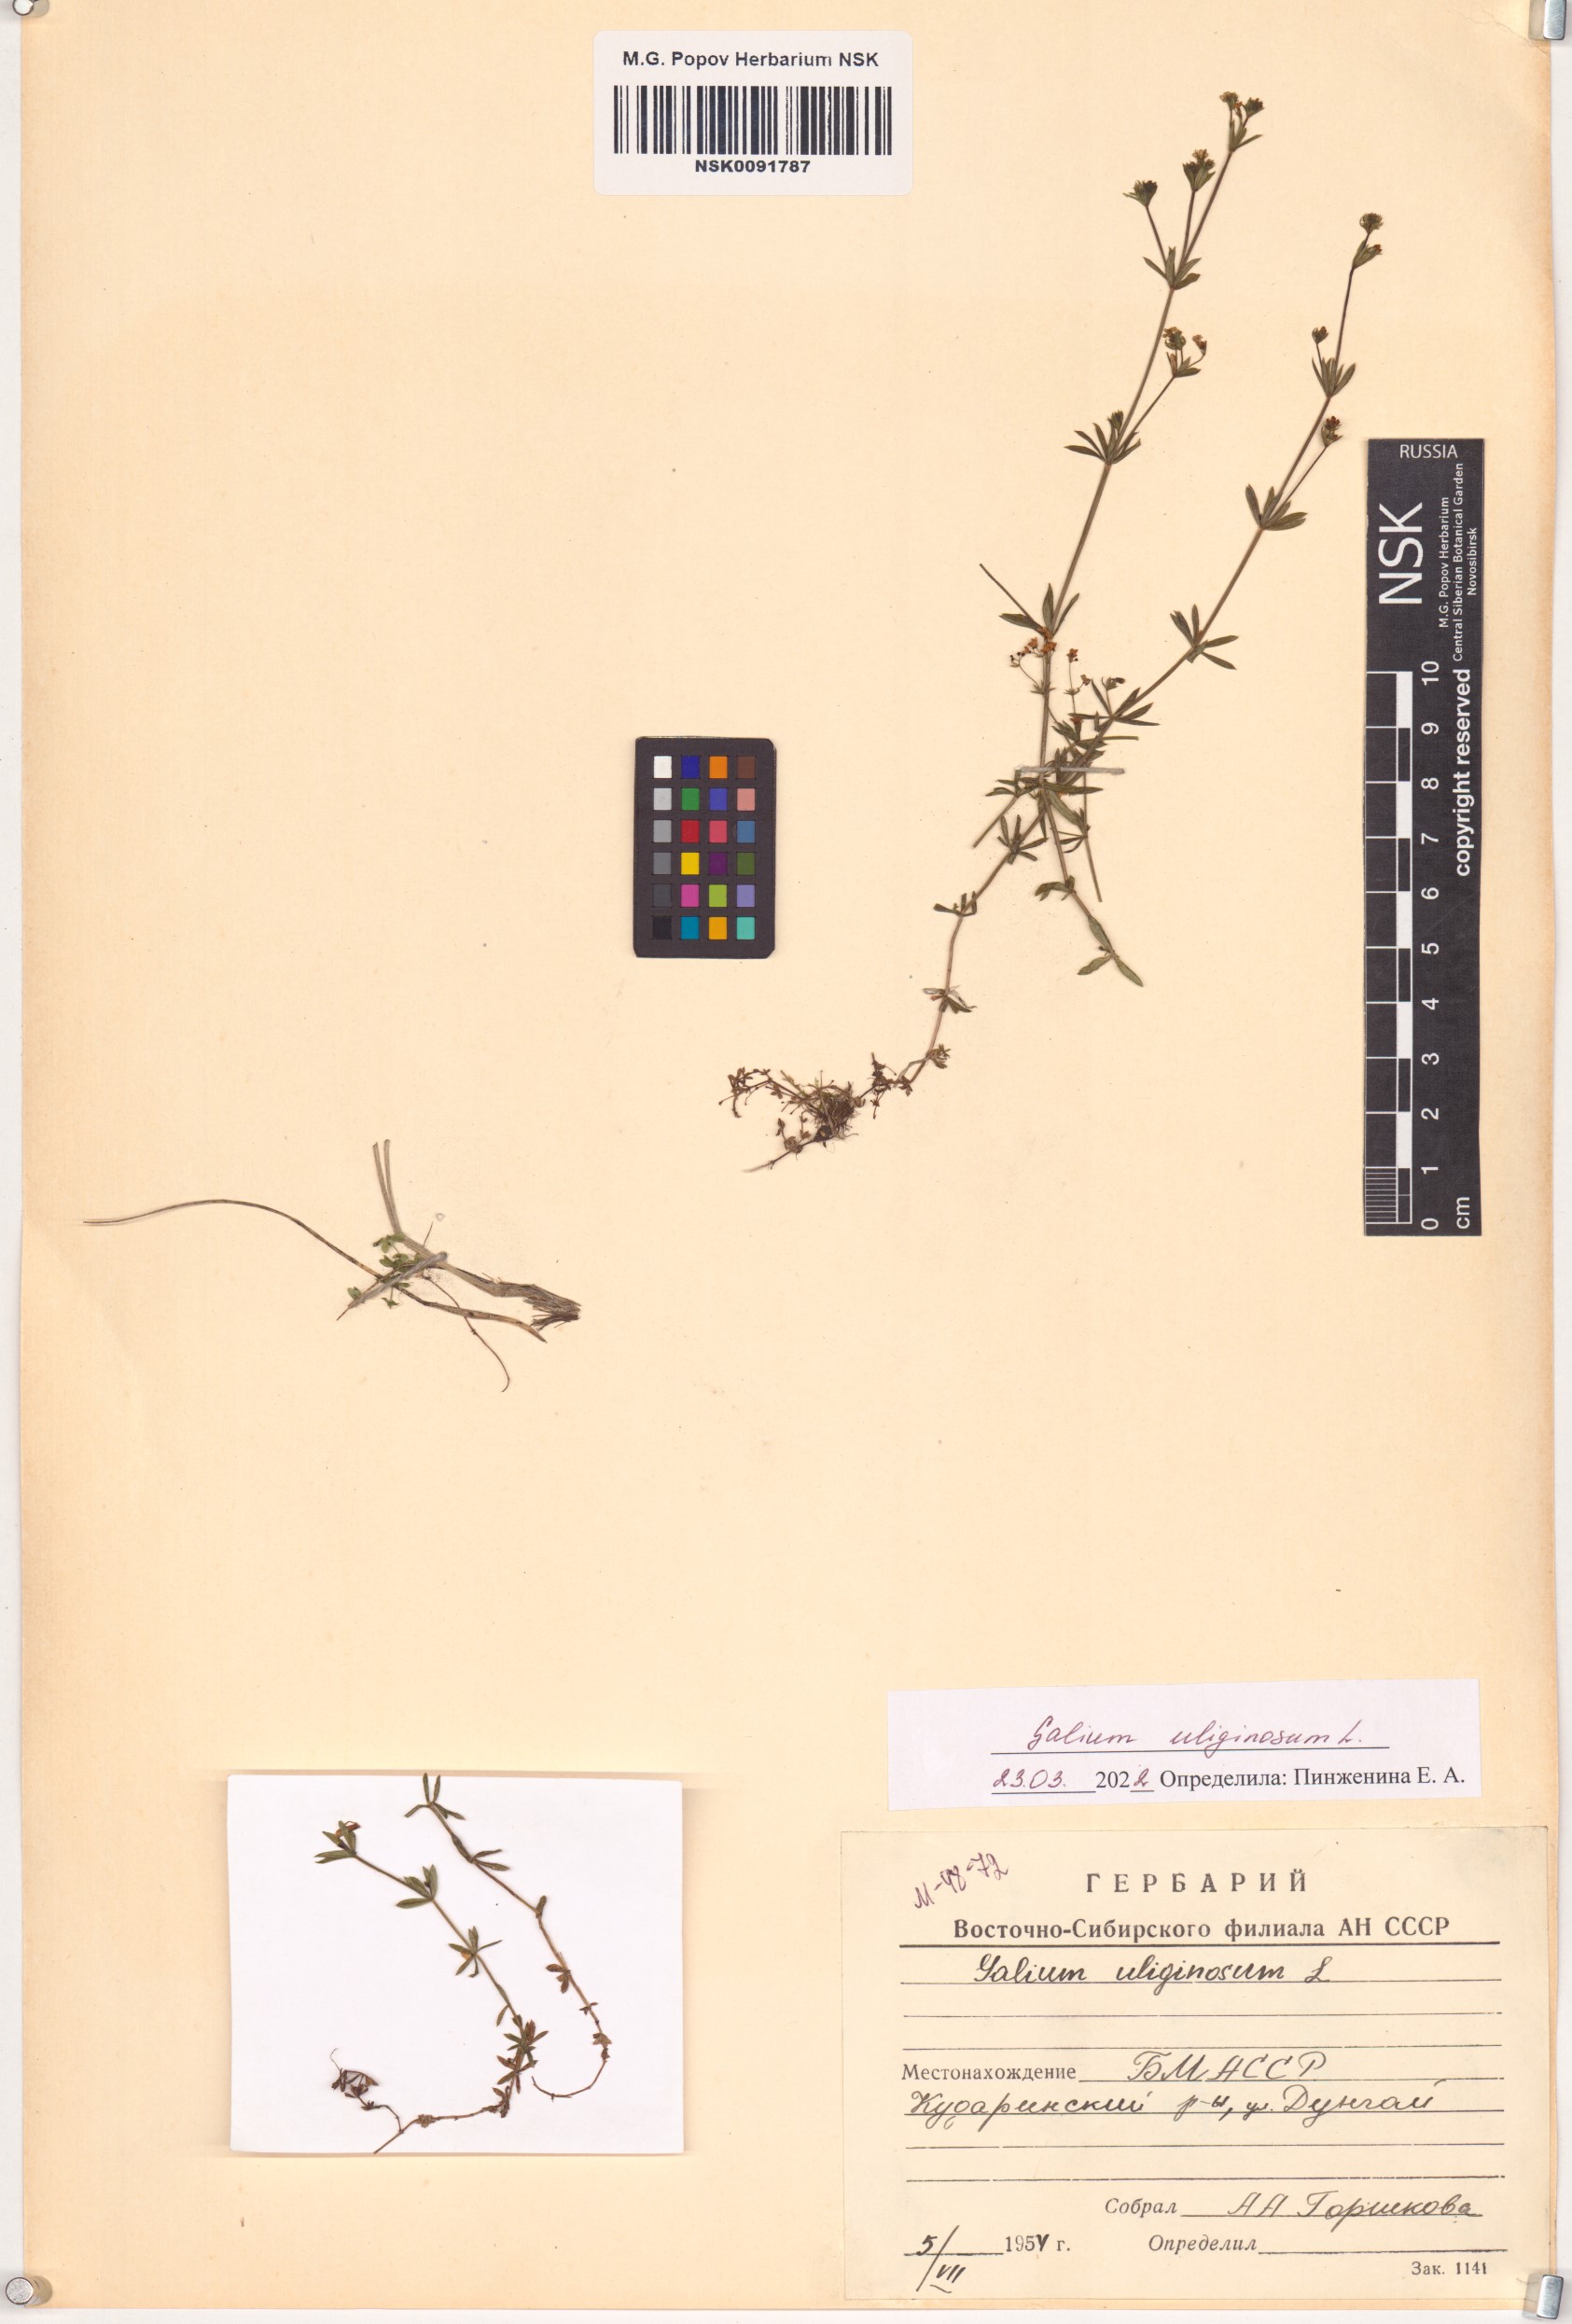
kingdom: Plantae
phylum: Tracheophyta
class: Magnoliopsida
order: Gentianales
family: Rubiaceae
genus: Galium
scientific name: Galium uliginosum
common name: Fen bedstraw
